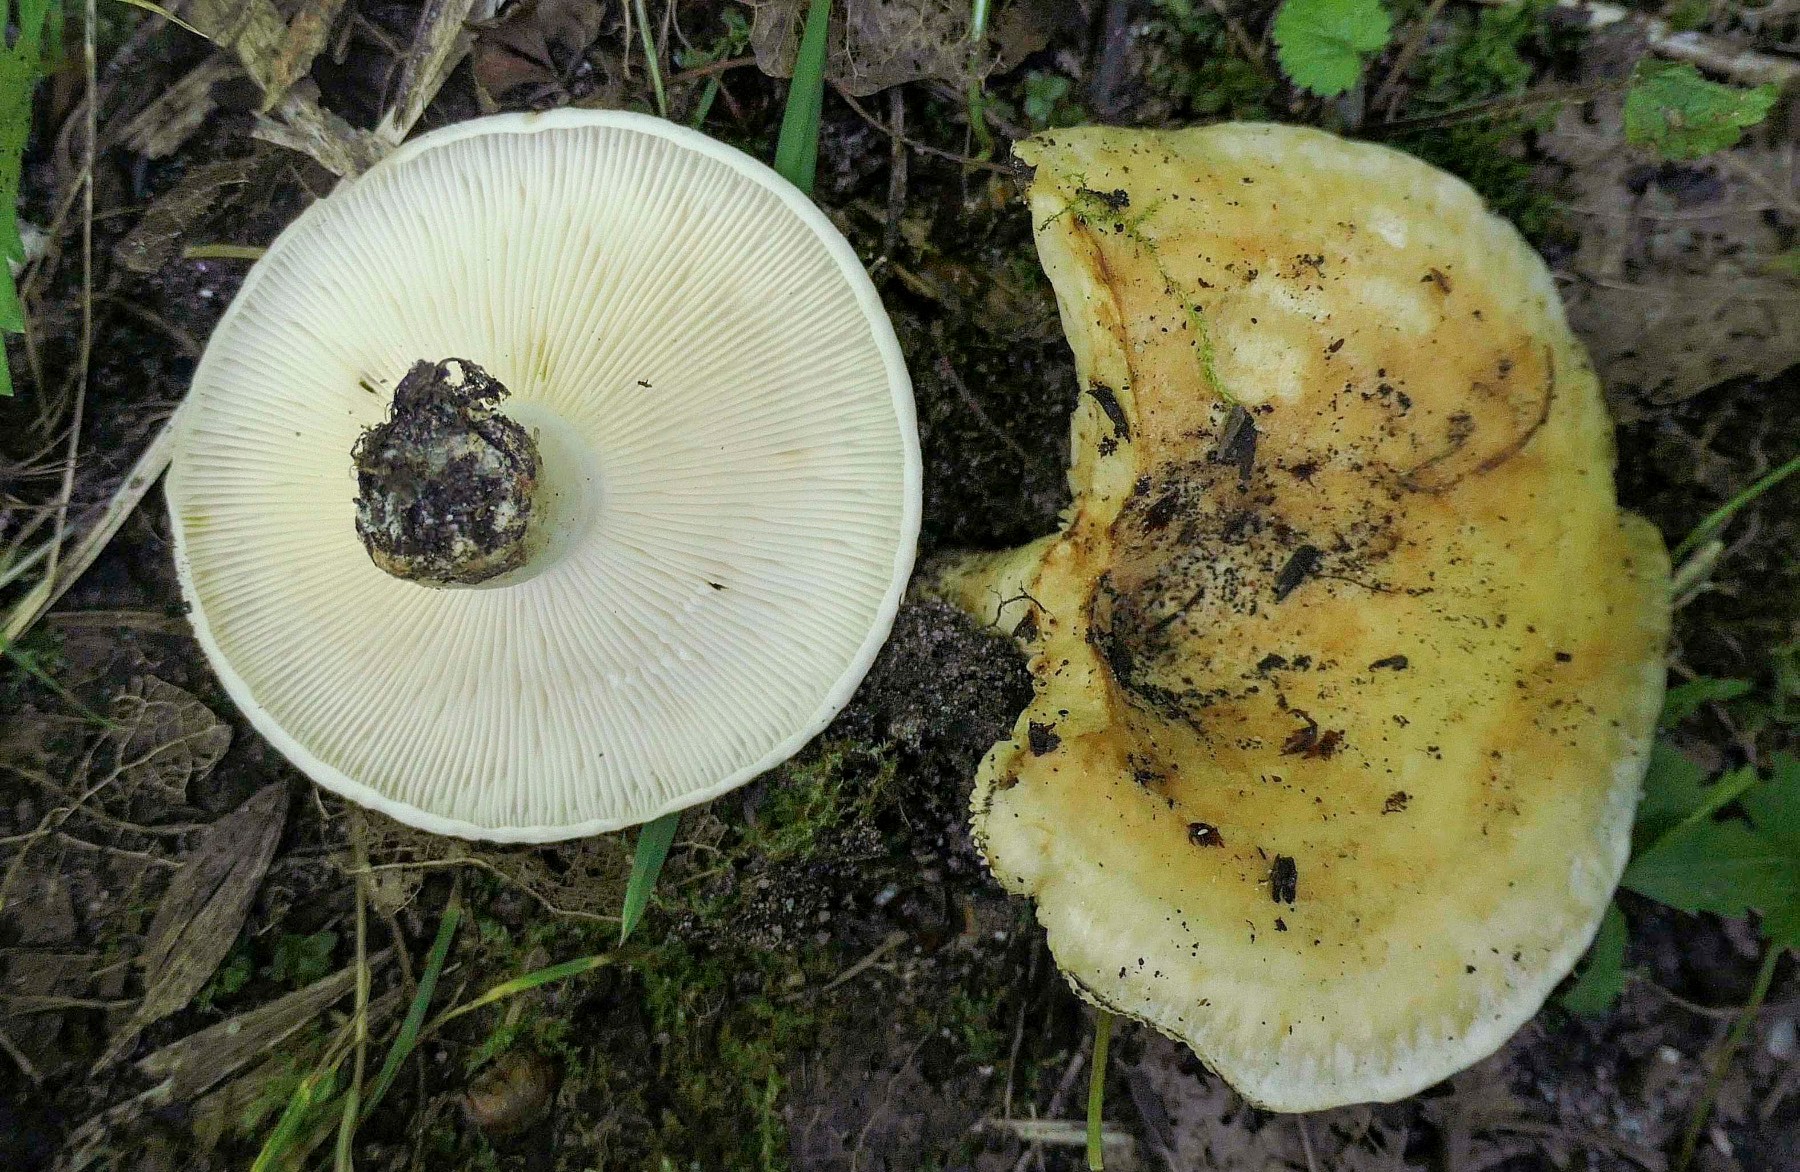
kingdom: Fungi
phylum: Basidiomycota
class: Agaricomycetes
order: Russulales
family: Russulaceae
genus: Lactarius
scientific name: Lactarius evosmus
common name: bæltet mælkehat
